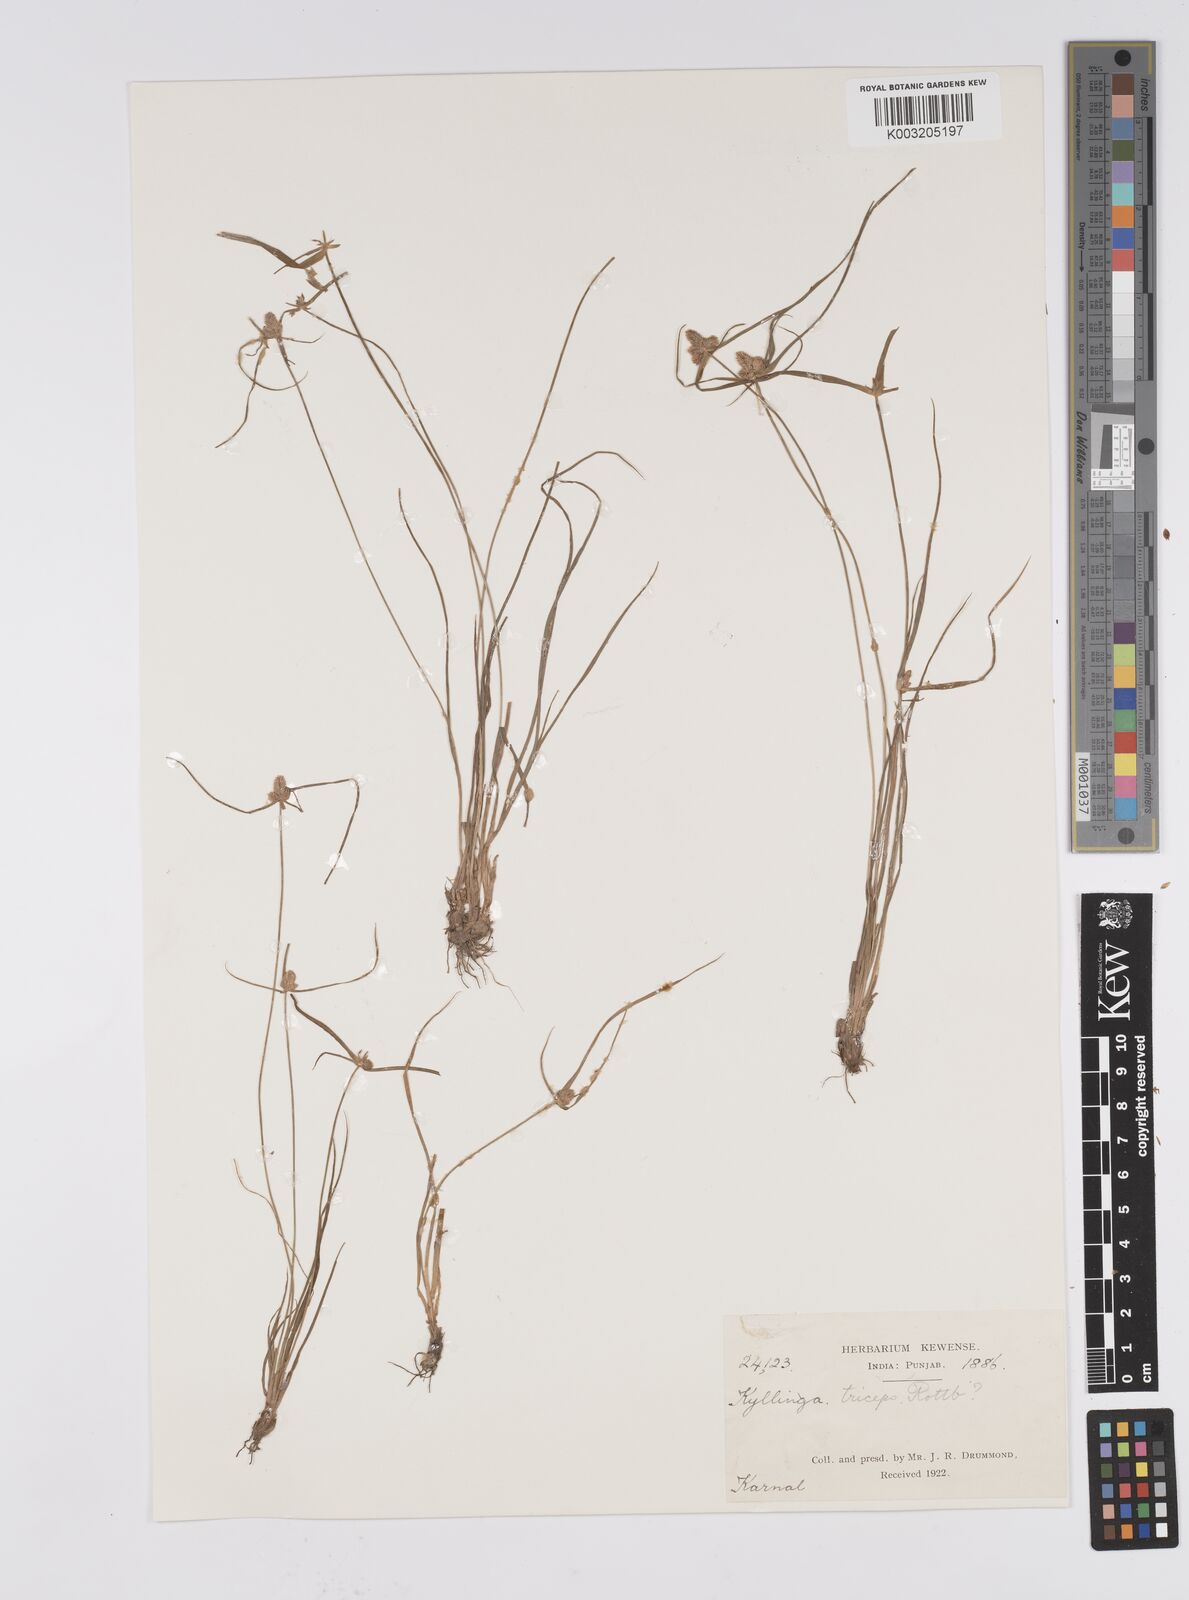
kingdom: Plantae
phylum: Tracheophyta
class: Liliopsida
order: Poales
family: Cyperaceae
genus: Cyperus
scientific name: Cyperus
